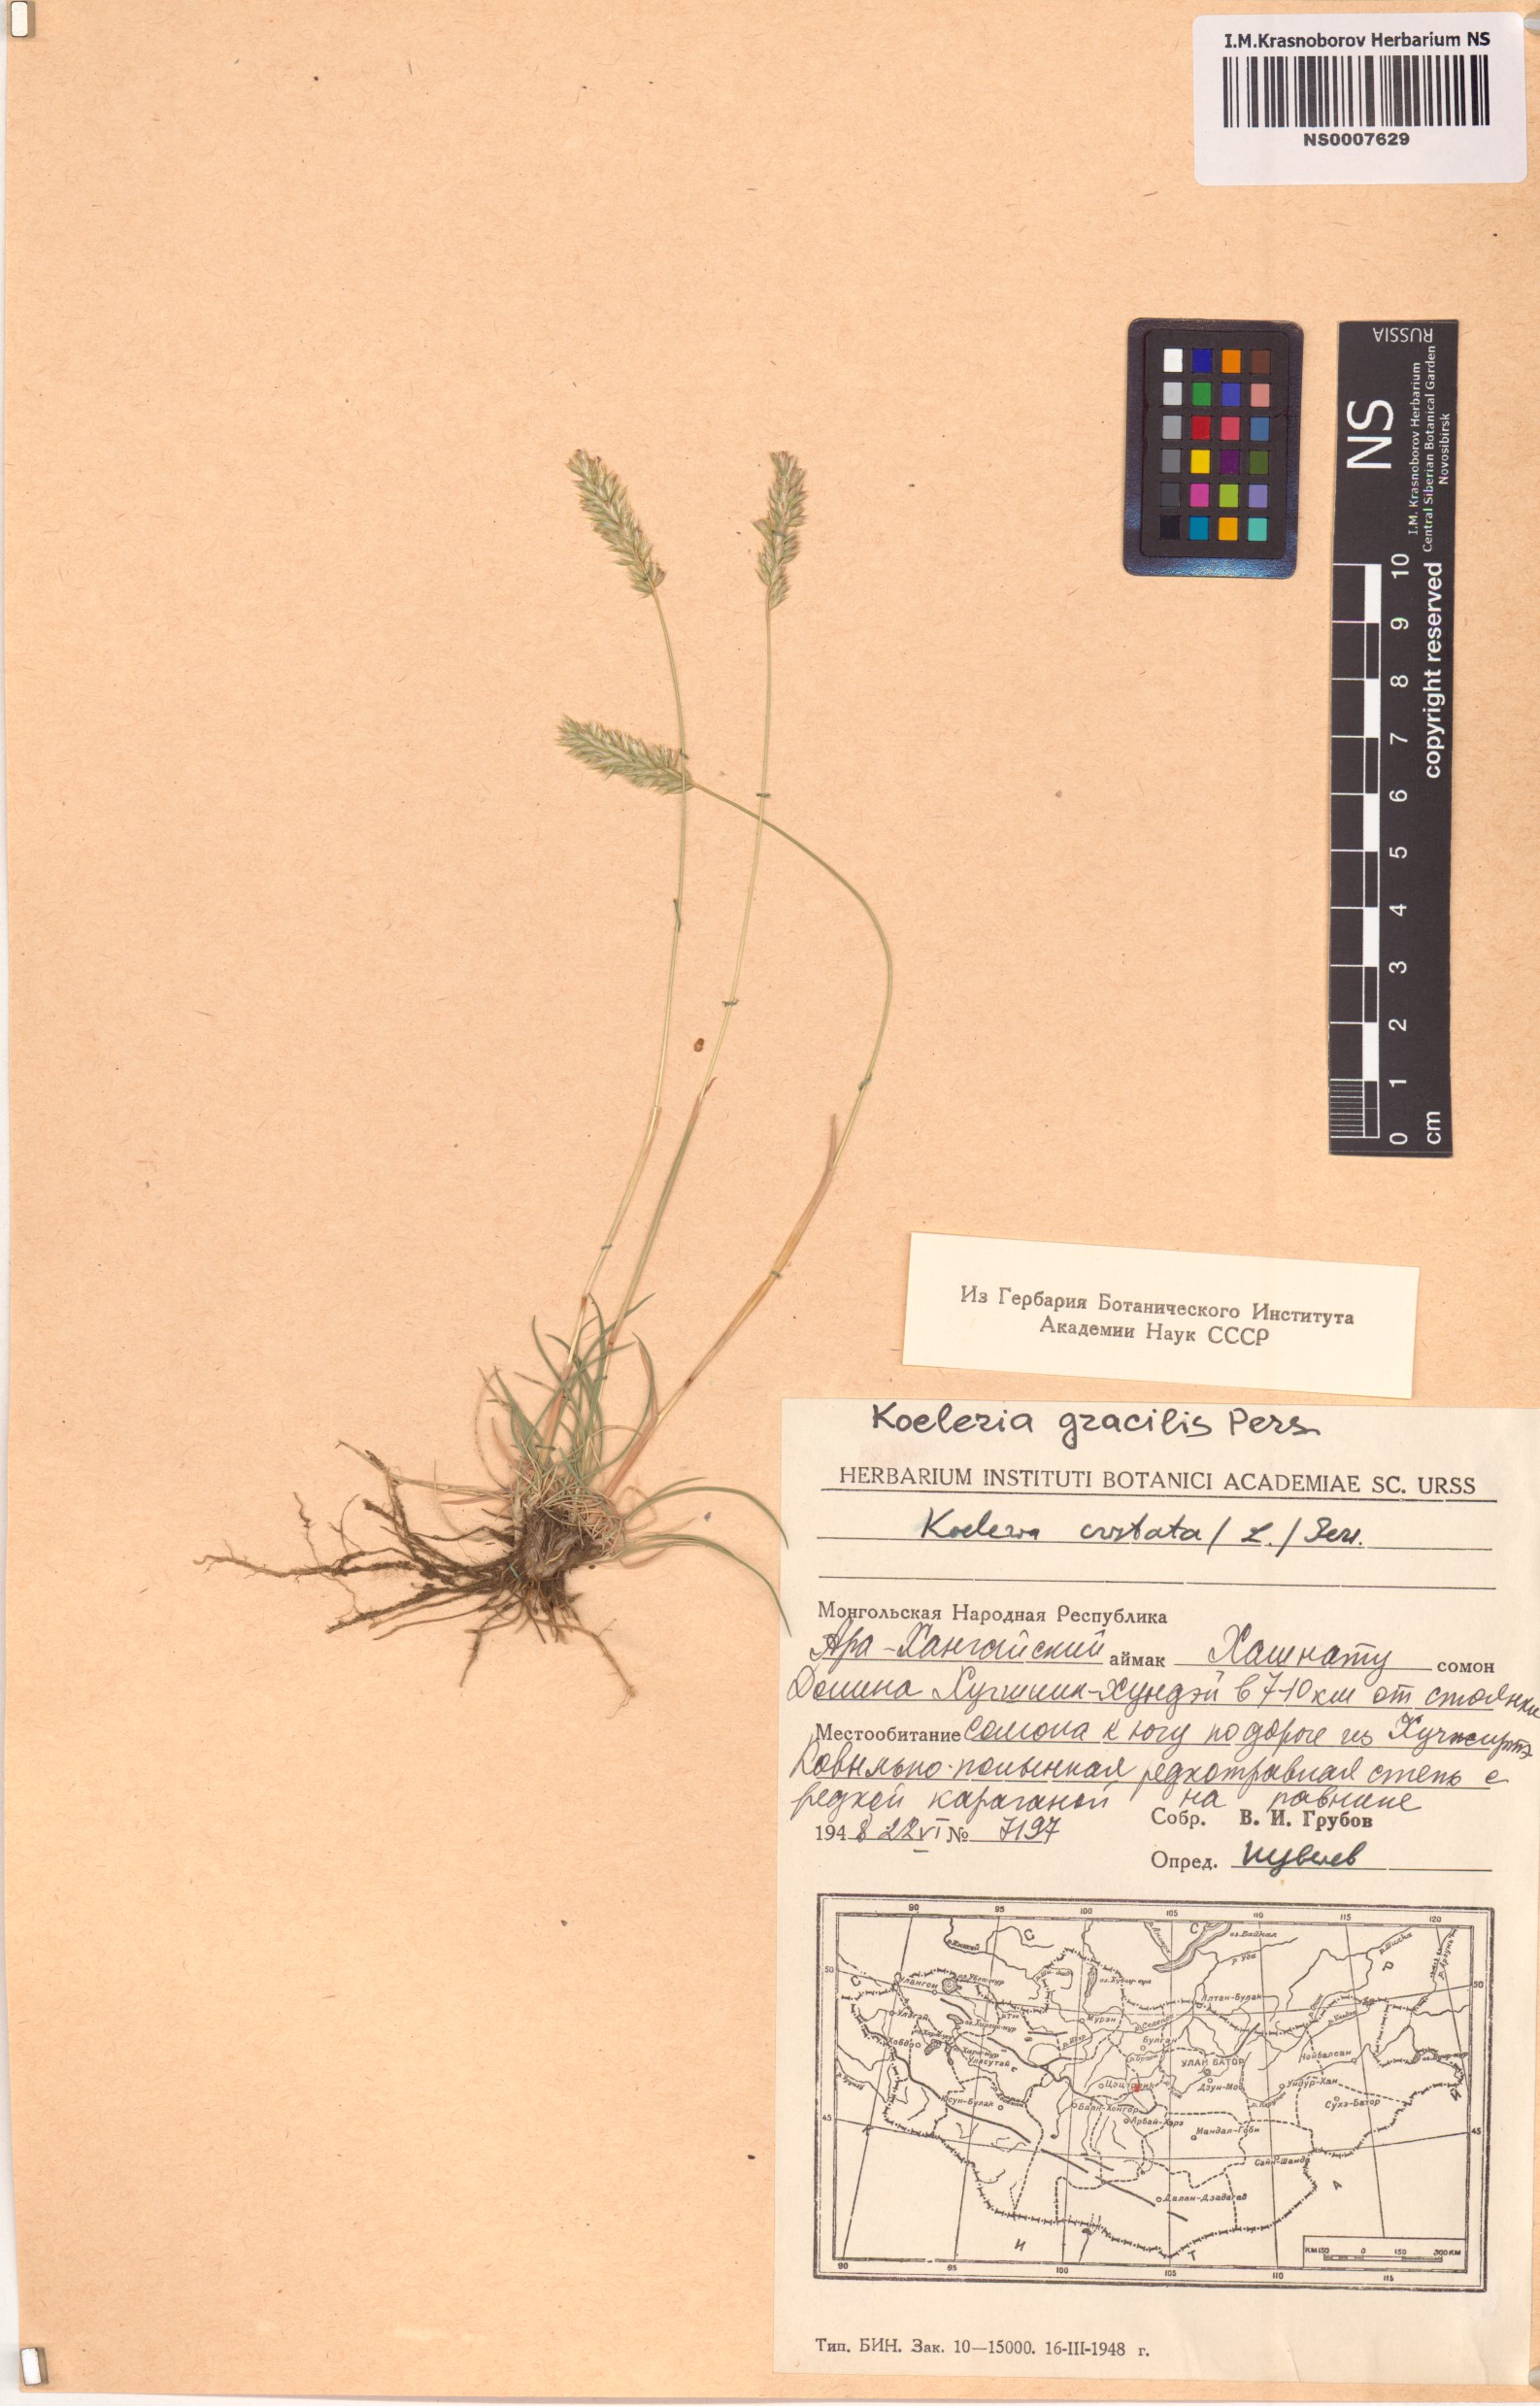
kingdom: Plantae
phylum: Tracheophyta
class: Liliopsida
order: Poales
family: Poaceae
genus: Koeleria
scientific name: Koeleria macrantha
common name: Crested hair-grass
